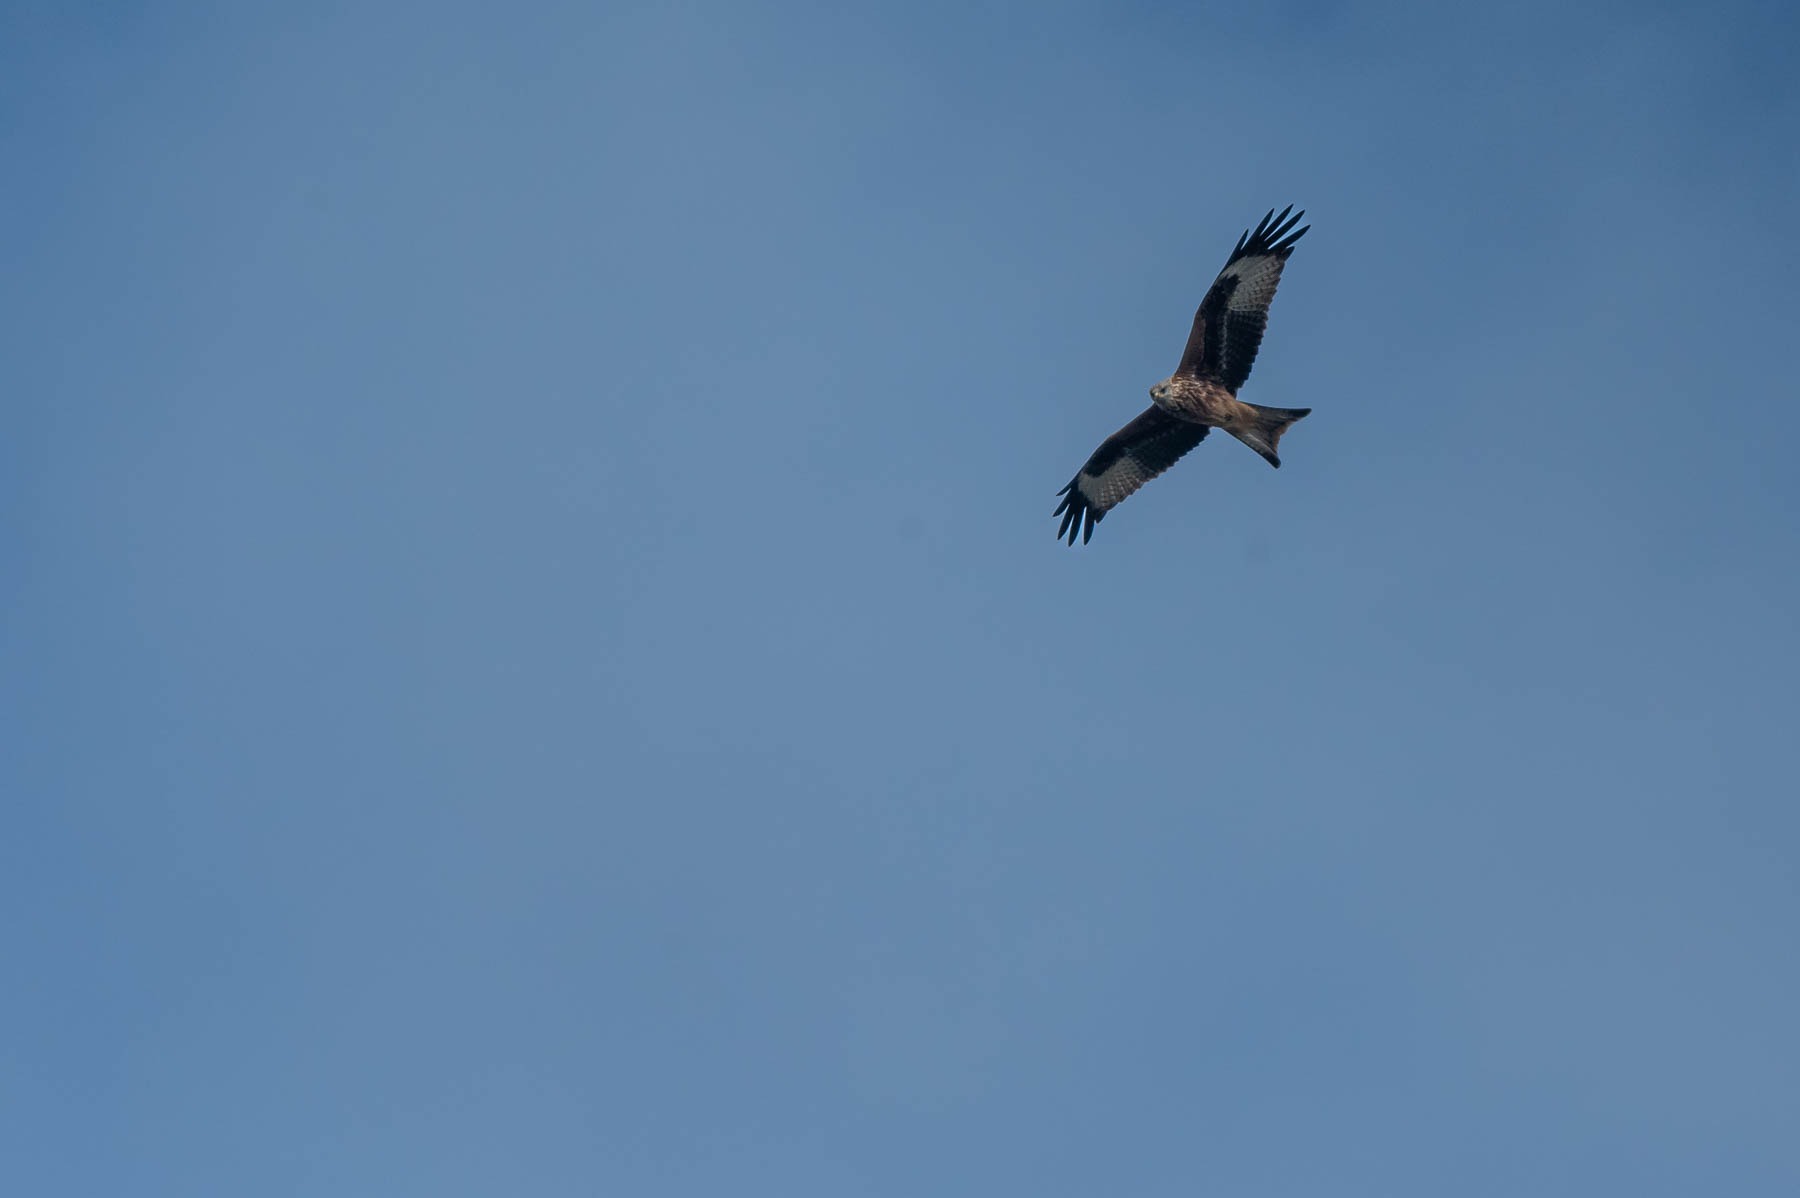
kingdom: Animalia
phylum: Chordata
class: Aves
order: Accipitriformes
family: Accipitridae
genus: Milvus
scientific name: Milvus milvus
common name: Rød glente
